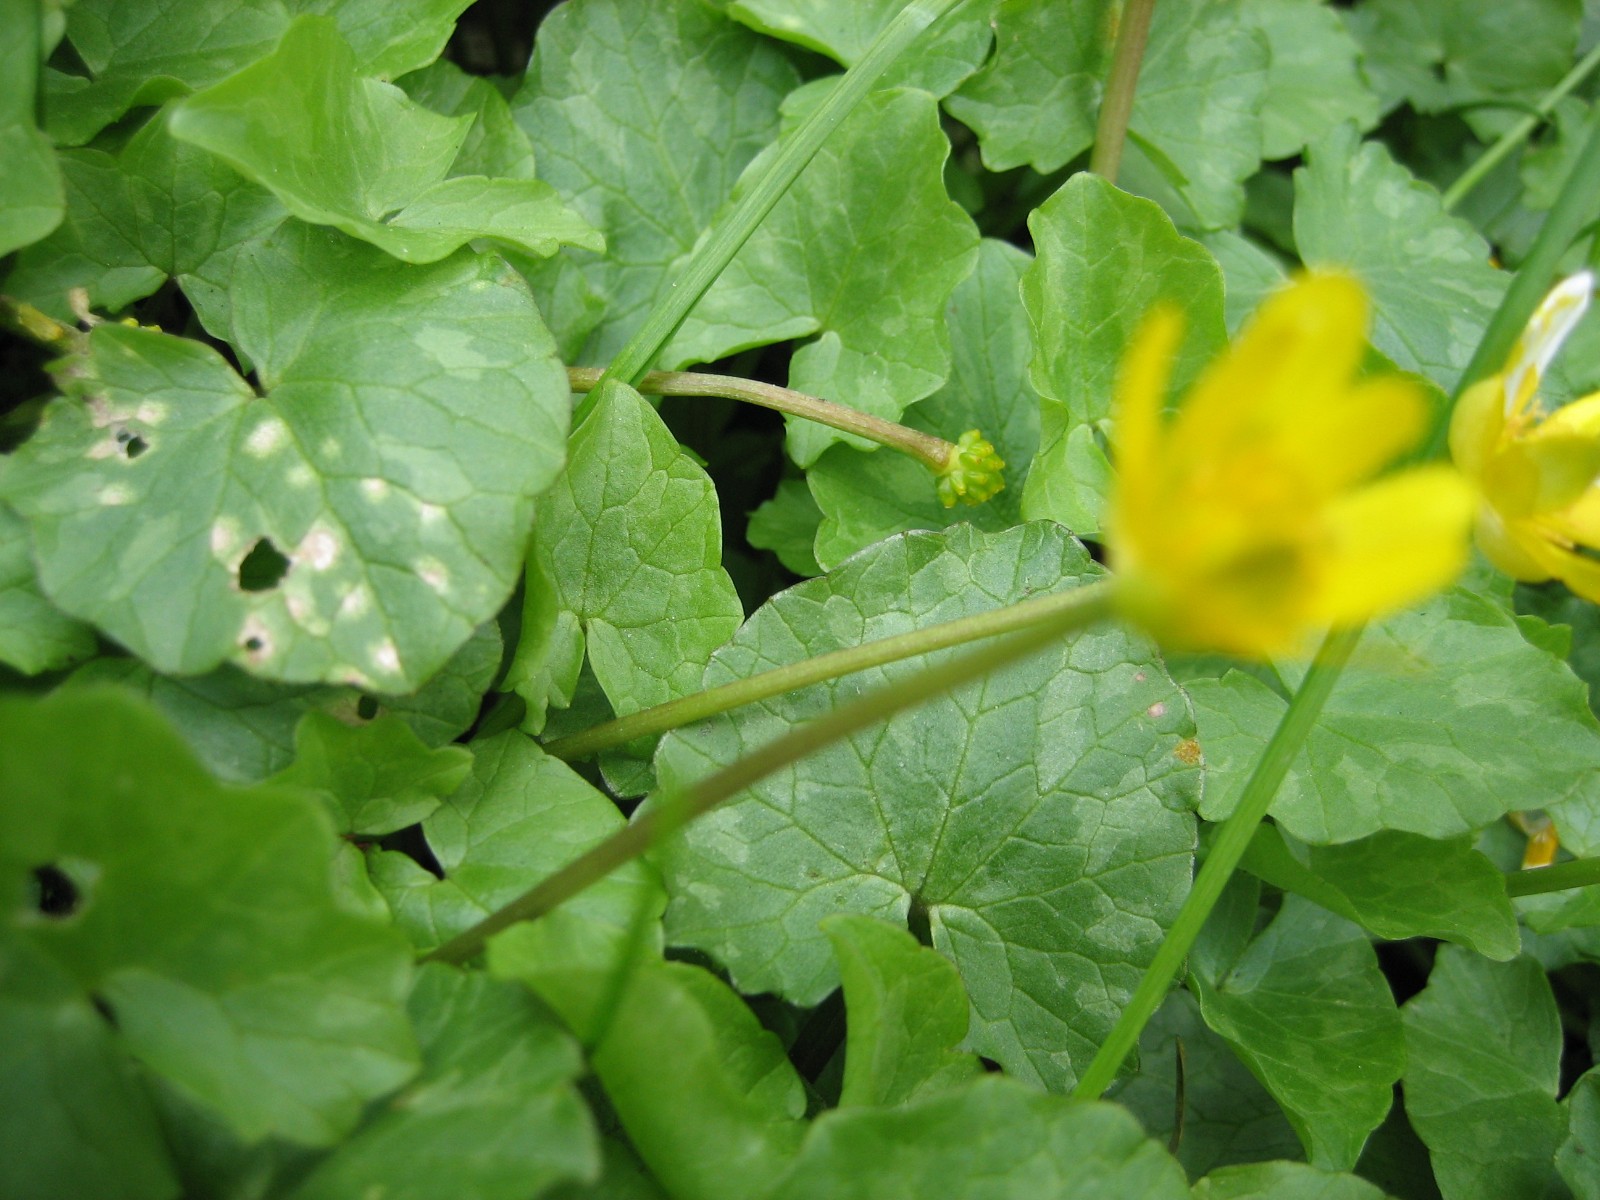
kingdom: Fungi
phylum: Basidiomycota
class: Exobasidiomycetes
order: Entylomatales
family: Entylomataceae
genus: Entyloma
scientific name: Entyloma ficariae
